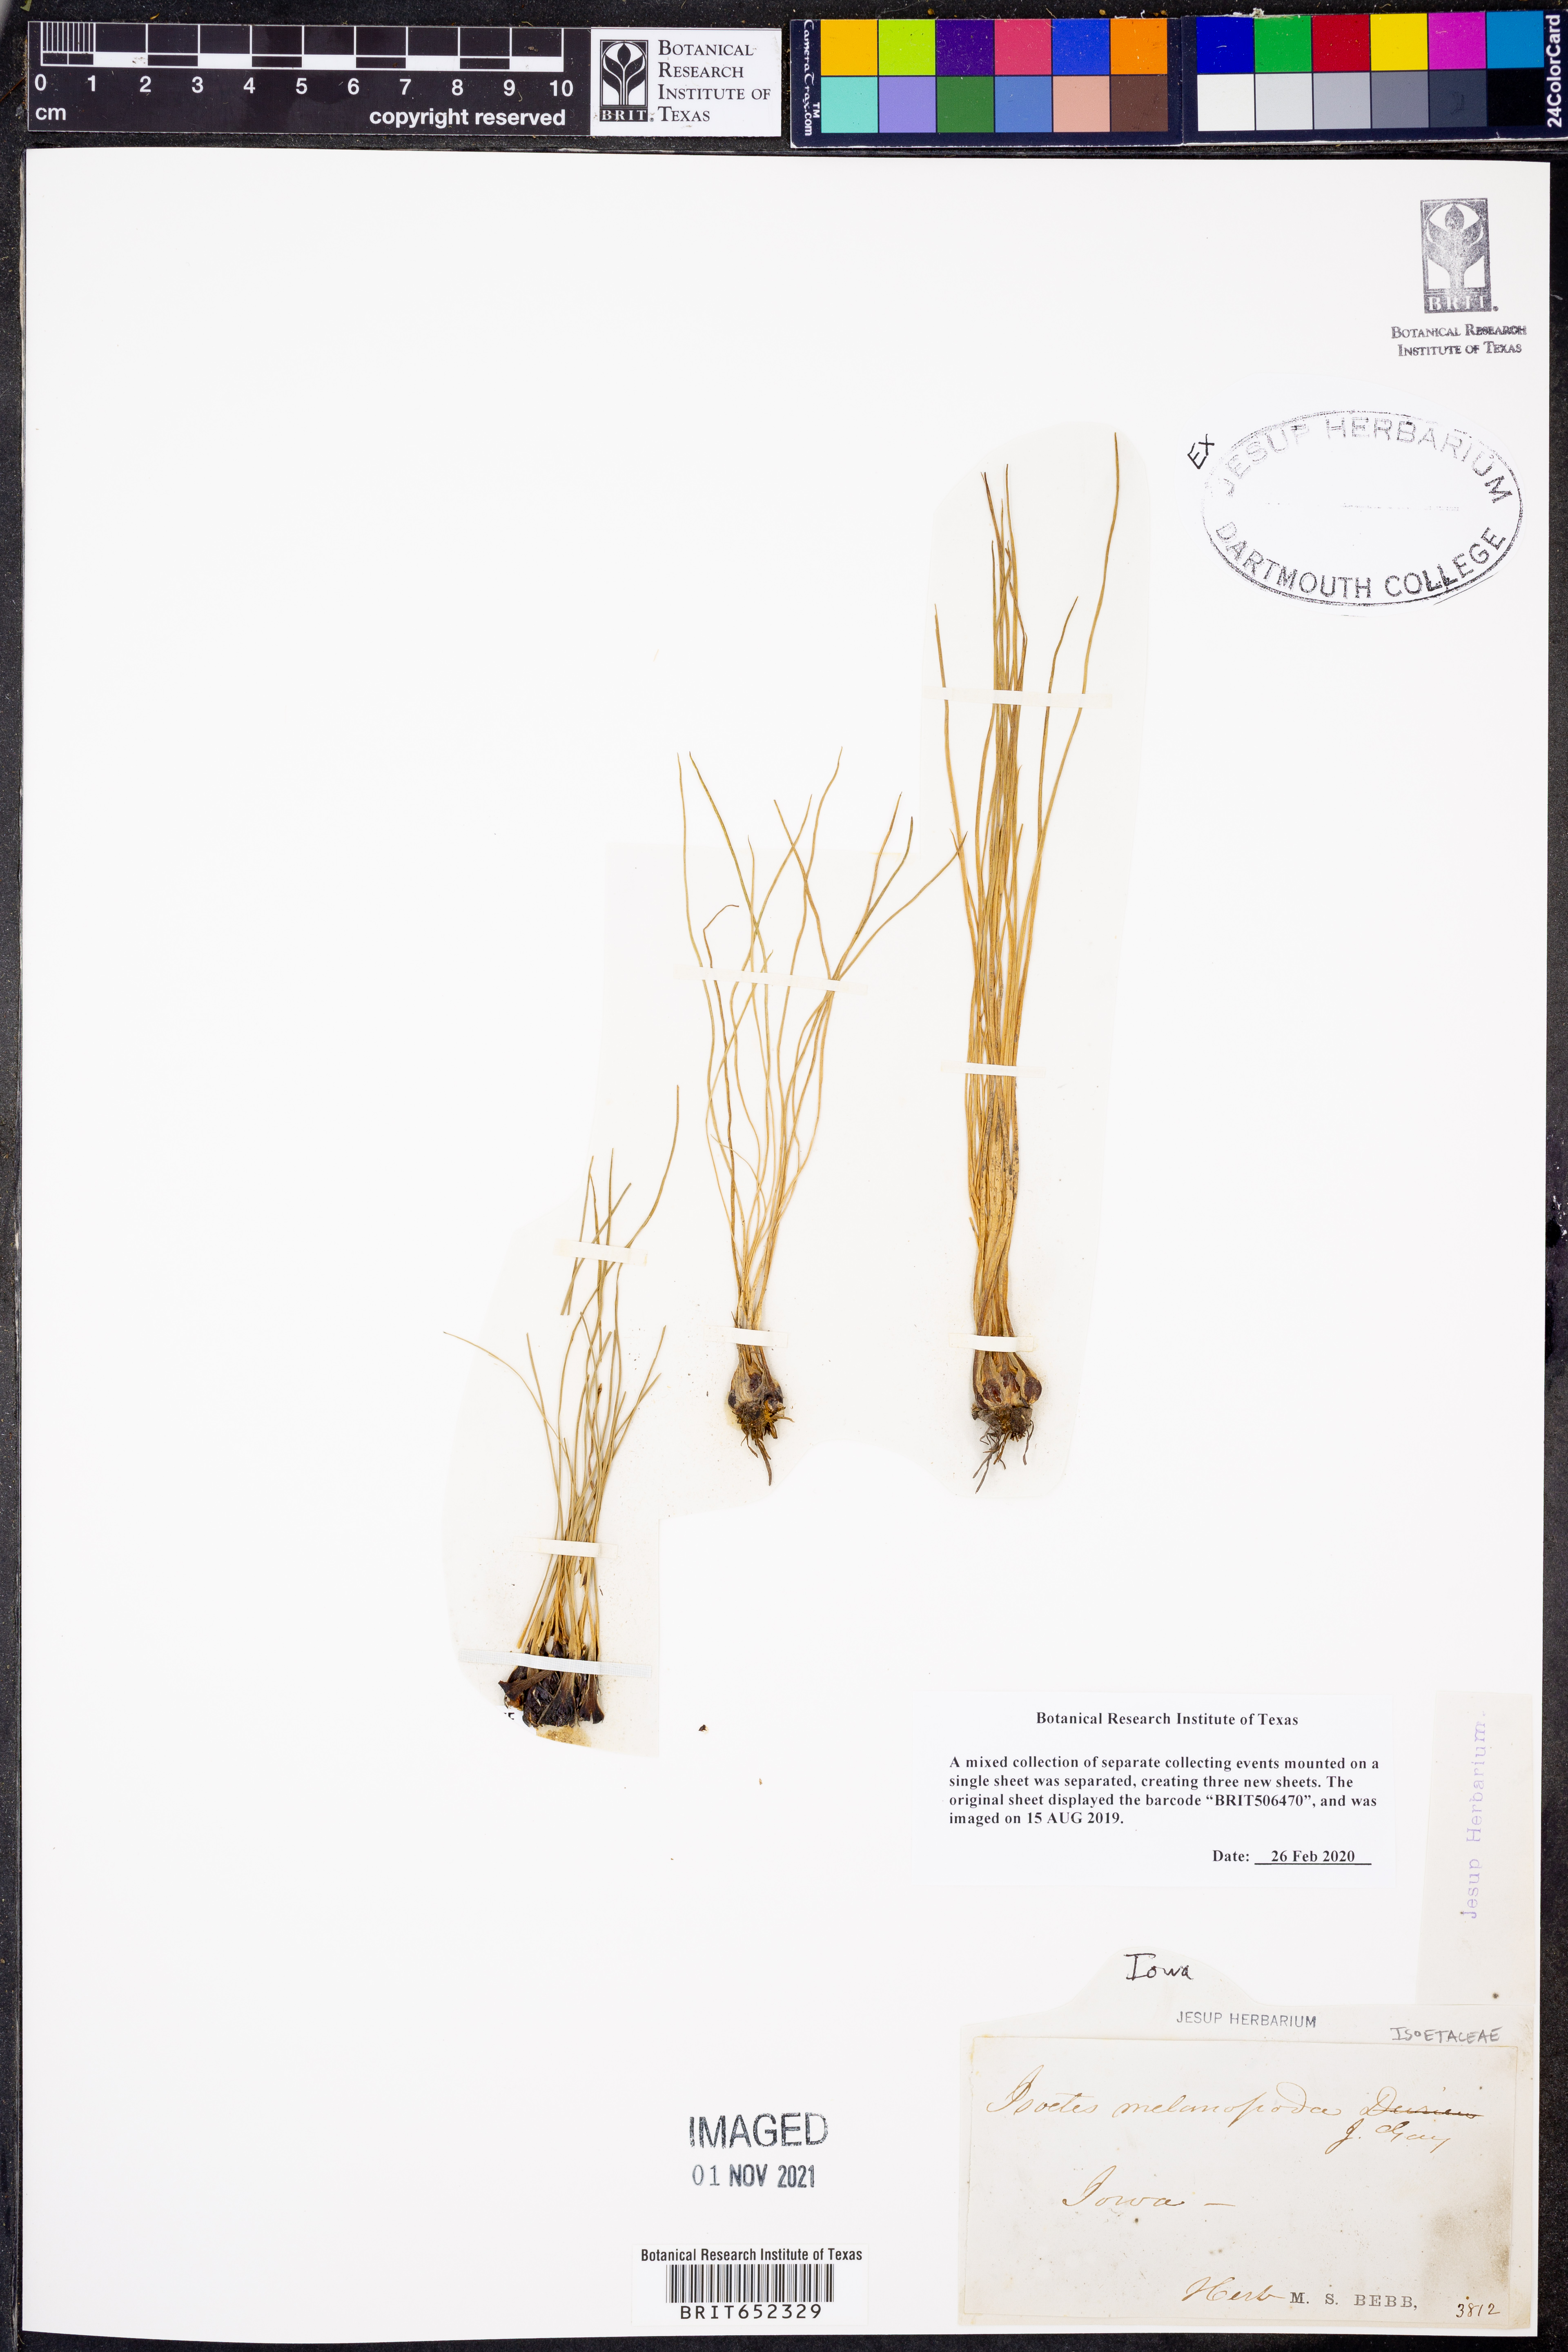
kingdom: Plantae
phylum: Tracheophyta
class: Lycopodiopsida
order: Isoetales
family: Isoetaceae
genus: Isoetes
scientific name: Isoetes melanopoda
